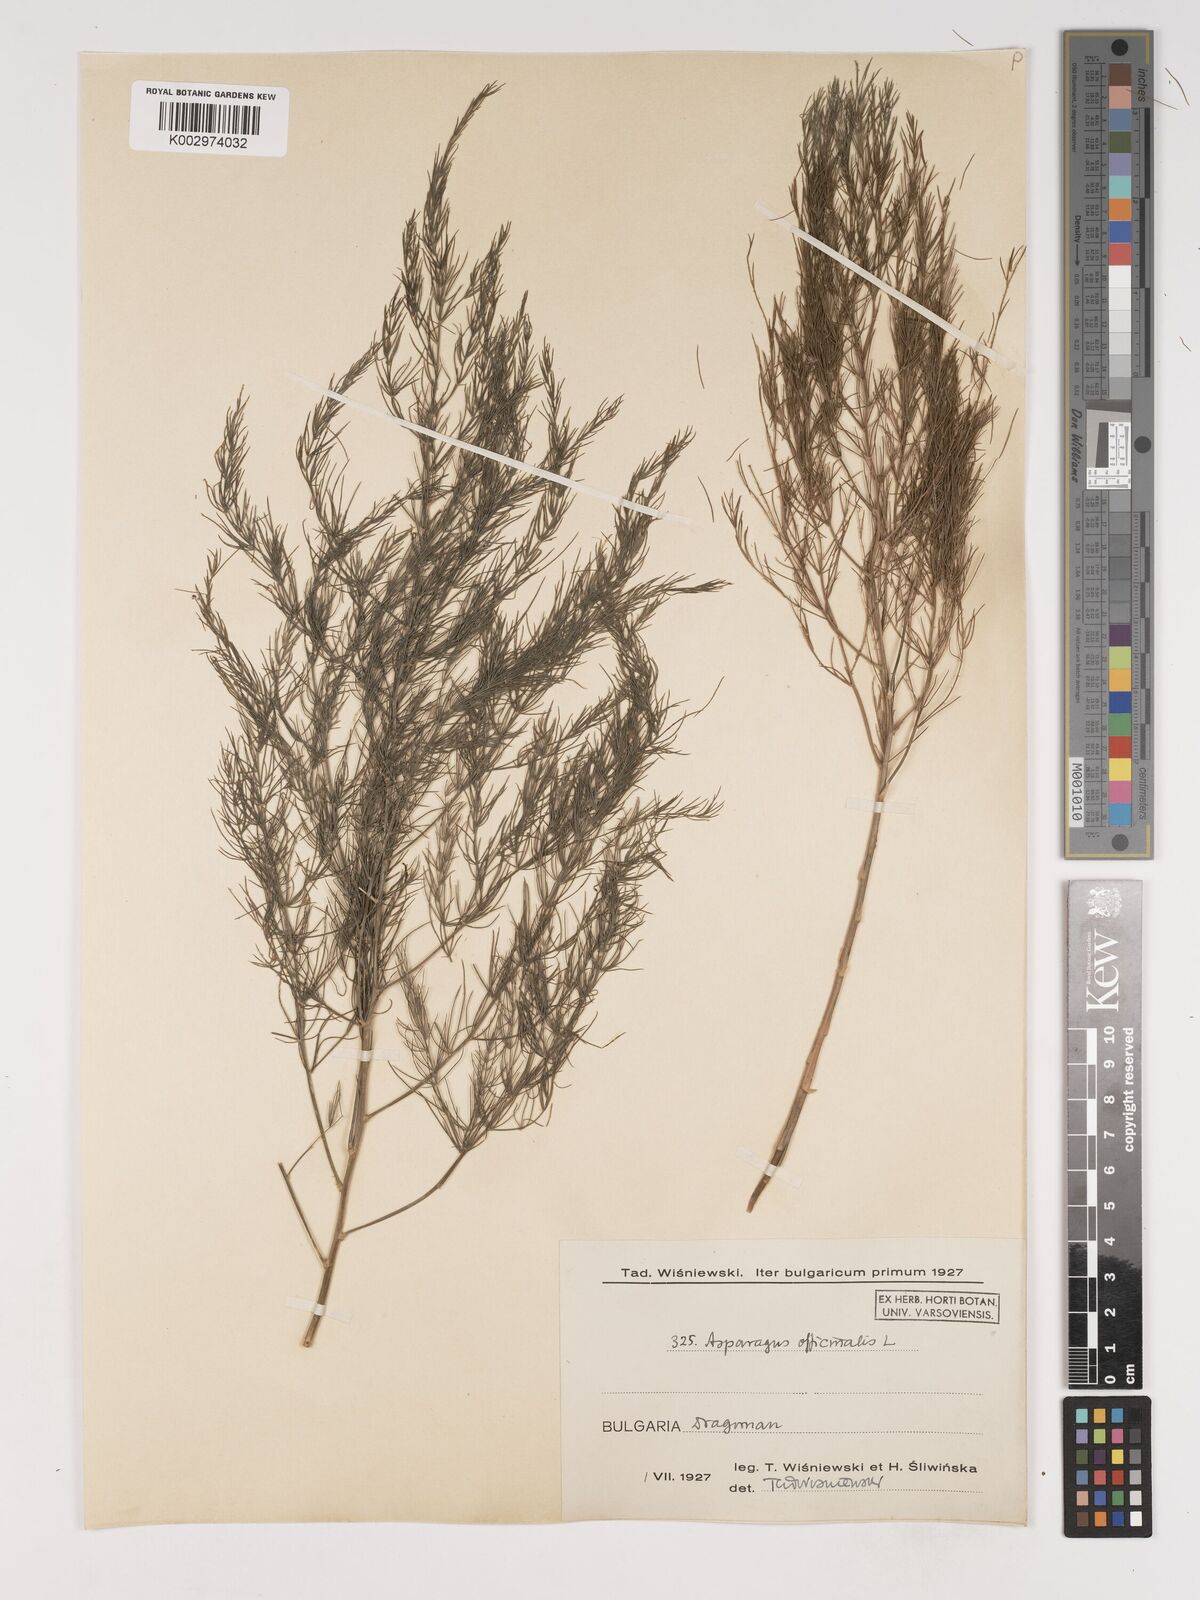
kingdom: Plantae
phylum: Tracheophyta
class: Liliopsida
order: Asparagales
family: Asparagaceae
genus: Asparagus
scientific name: Asparagus officinalis
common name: Garden asparagus
